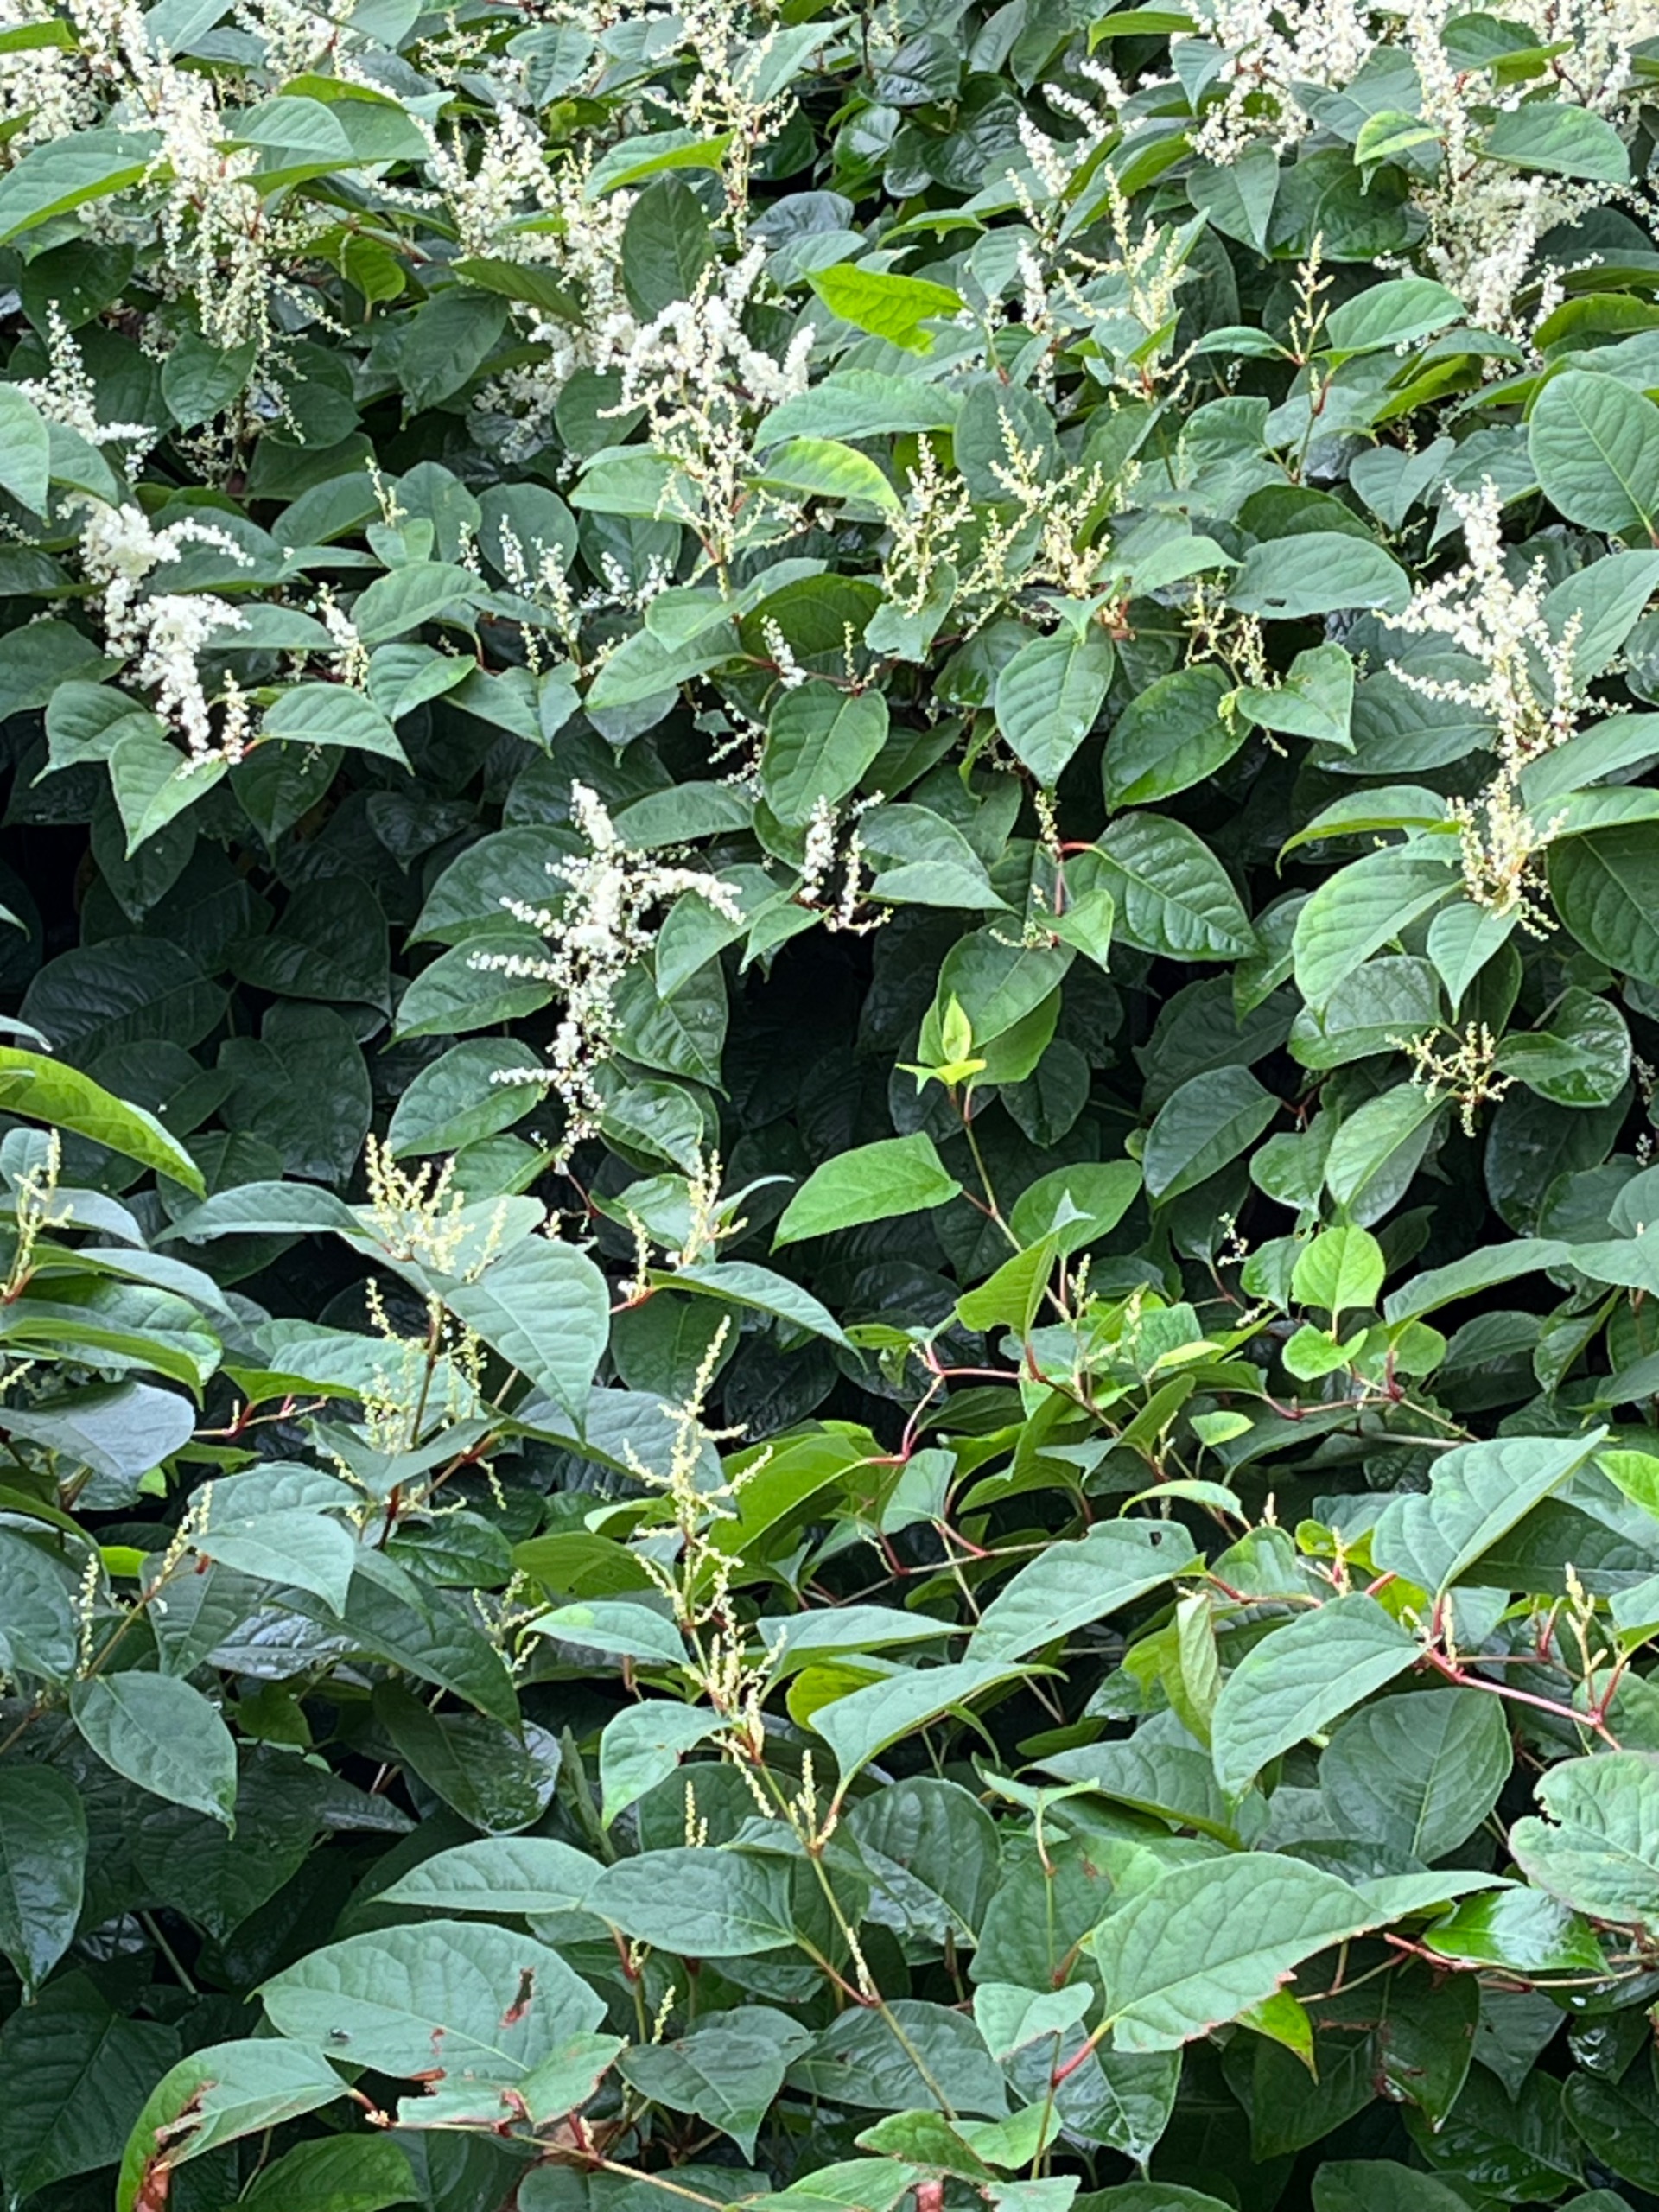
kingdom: Plantae
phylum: Tracheophyta
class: Magnoliopsida
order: Caryophyllales
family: Polygonaceae
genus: Reynoutria
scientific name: Reynoutria japonica
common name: Japan-pileurt
